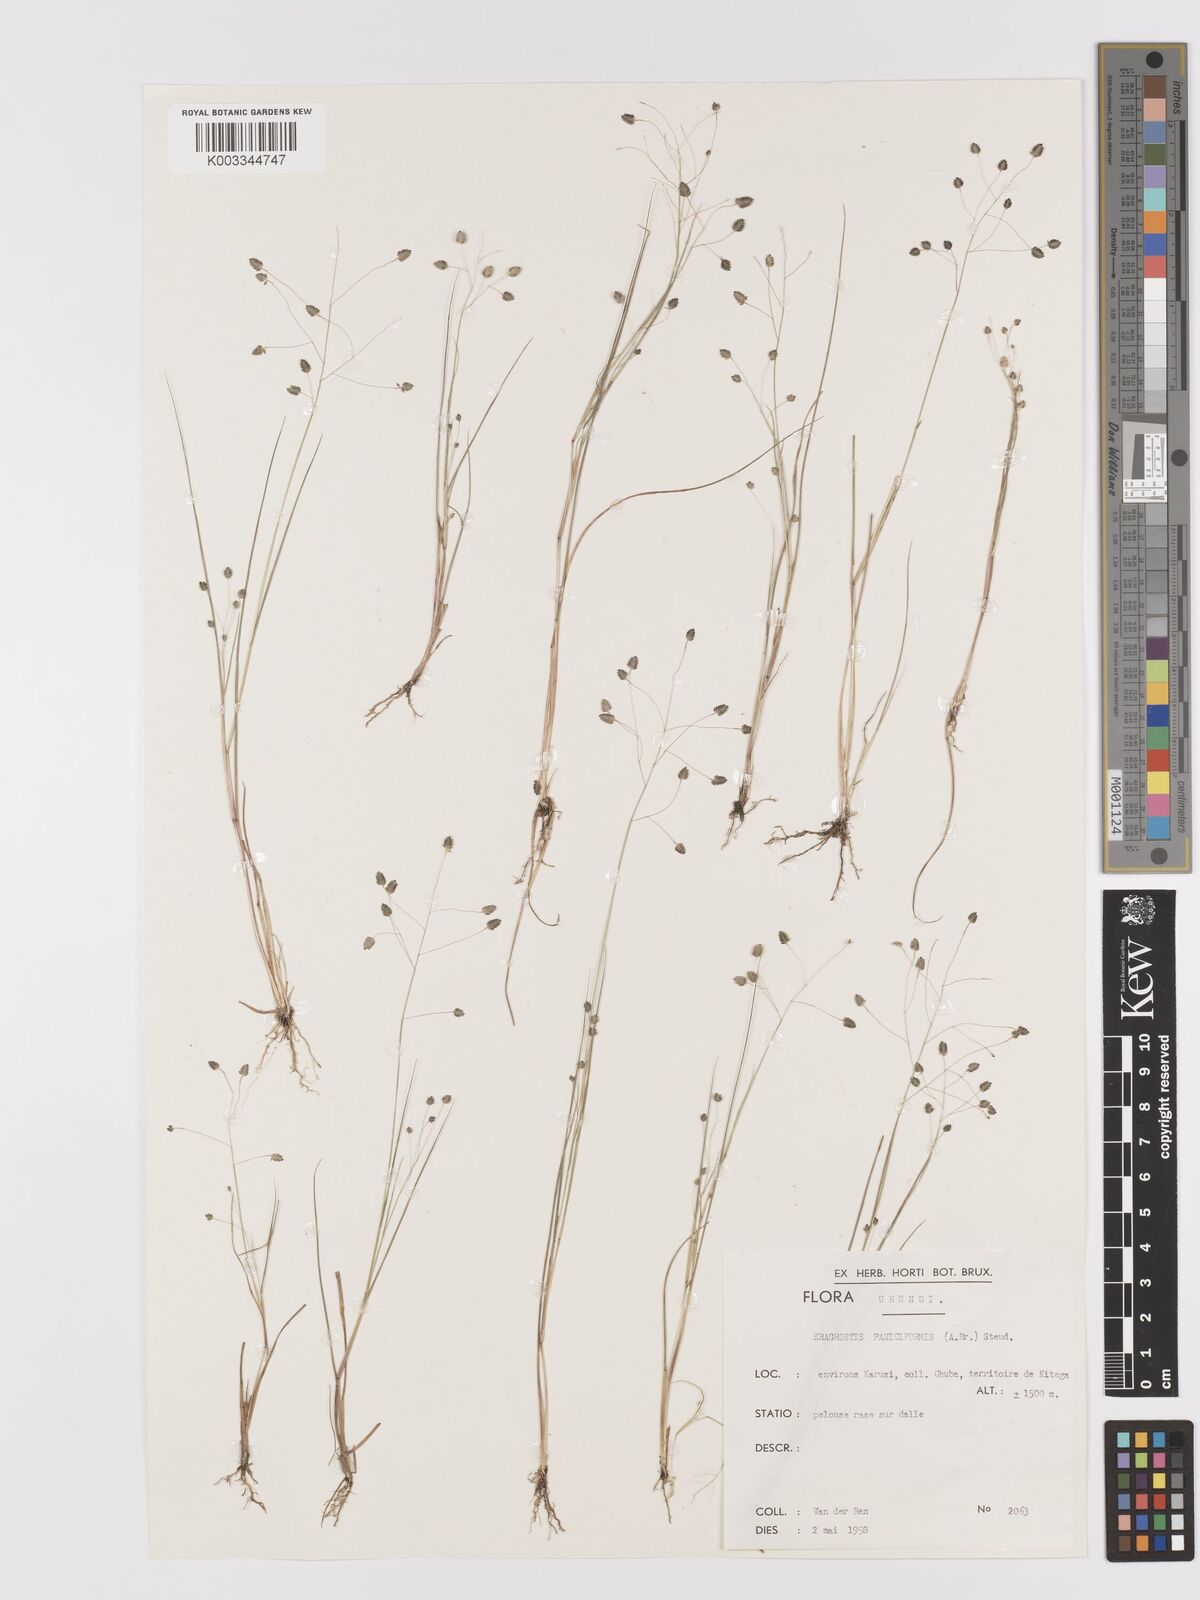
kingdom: Plantae
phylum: Tracheophyta
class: Liliopsida
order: Poales
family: Poaceae
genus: Eragrostis
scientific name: Eragrostis exasperata
